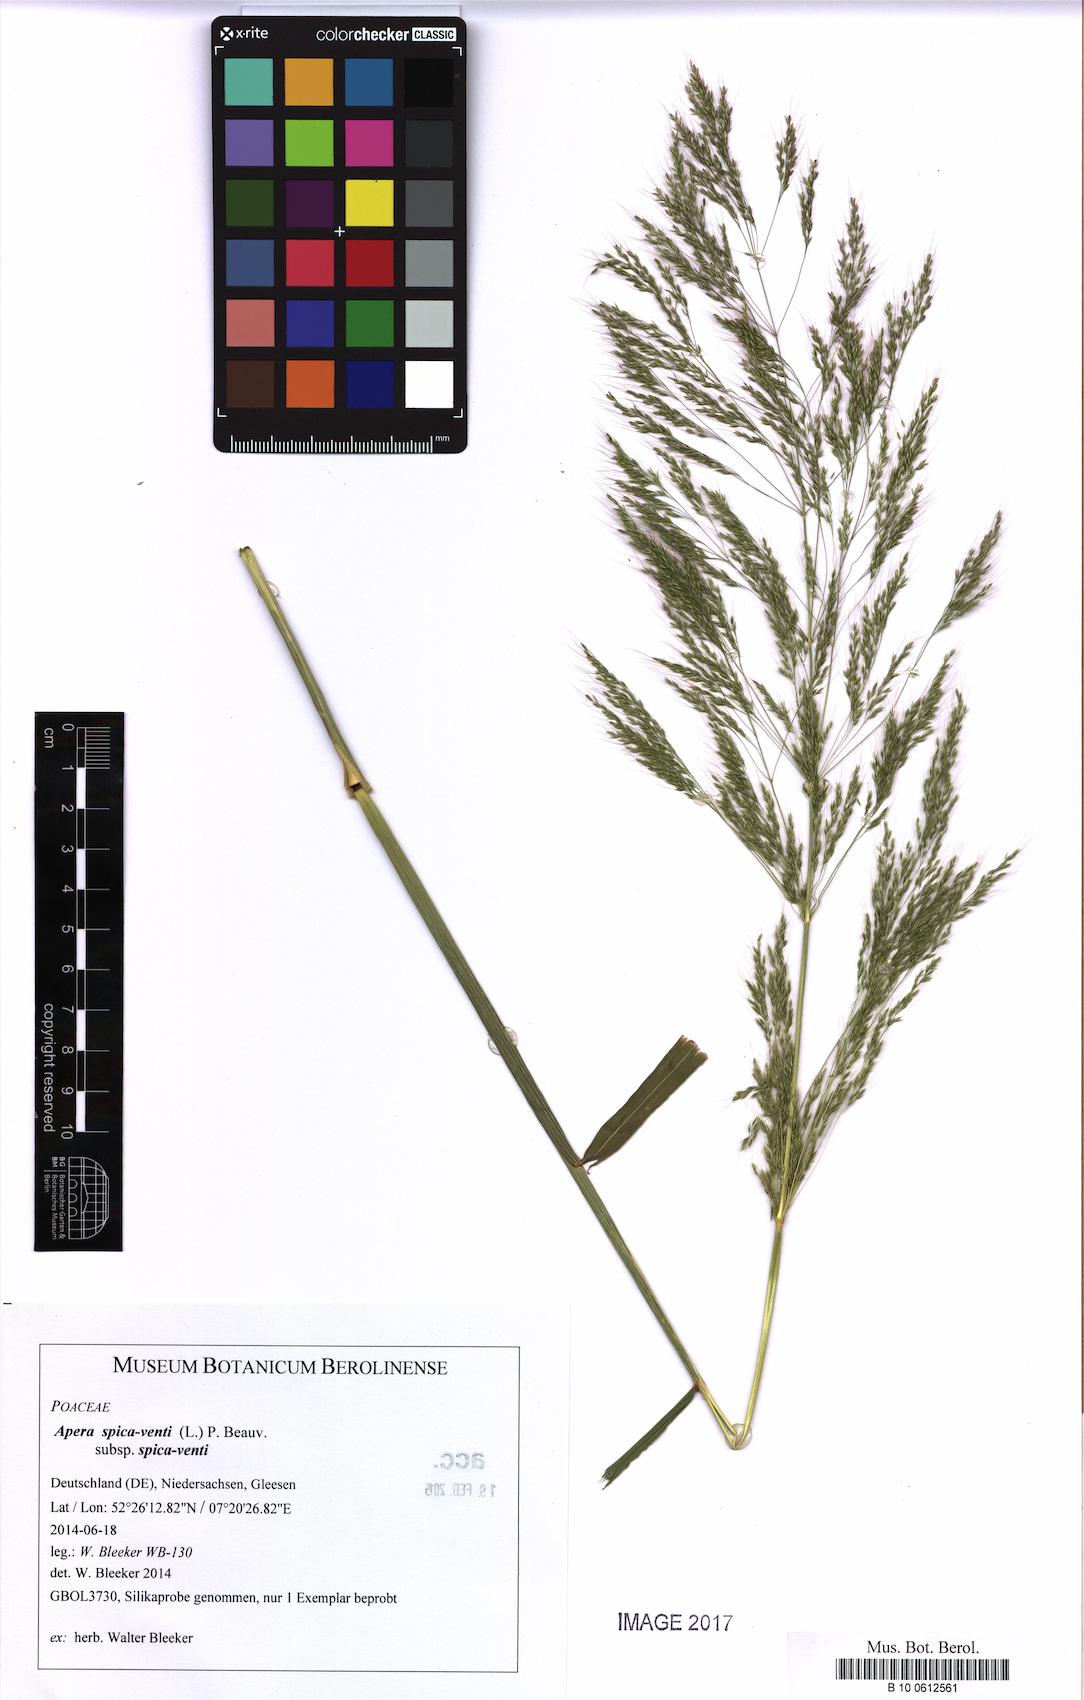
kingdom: Plantae
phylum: Tracheophyta
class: Liliopsida
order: Poales
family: Poaceae
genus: Apera
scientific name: Apera spica-venti
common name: Loose silky-bent
